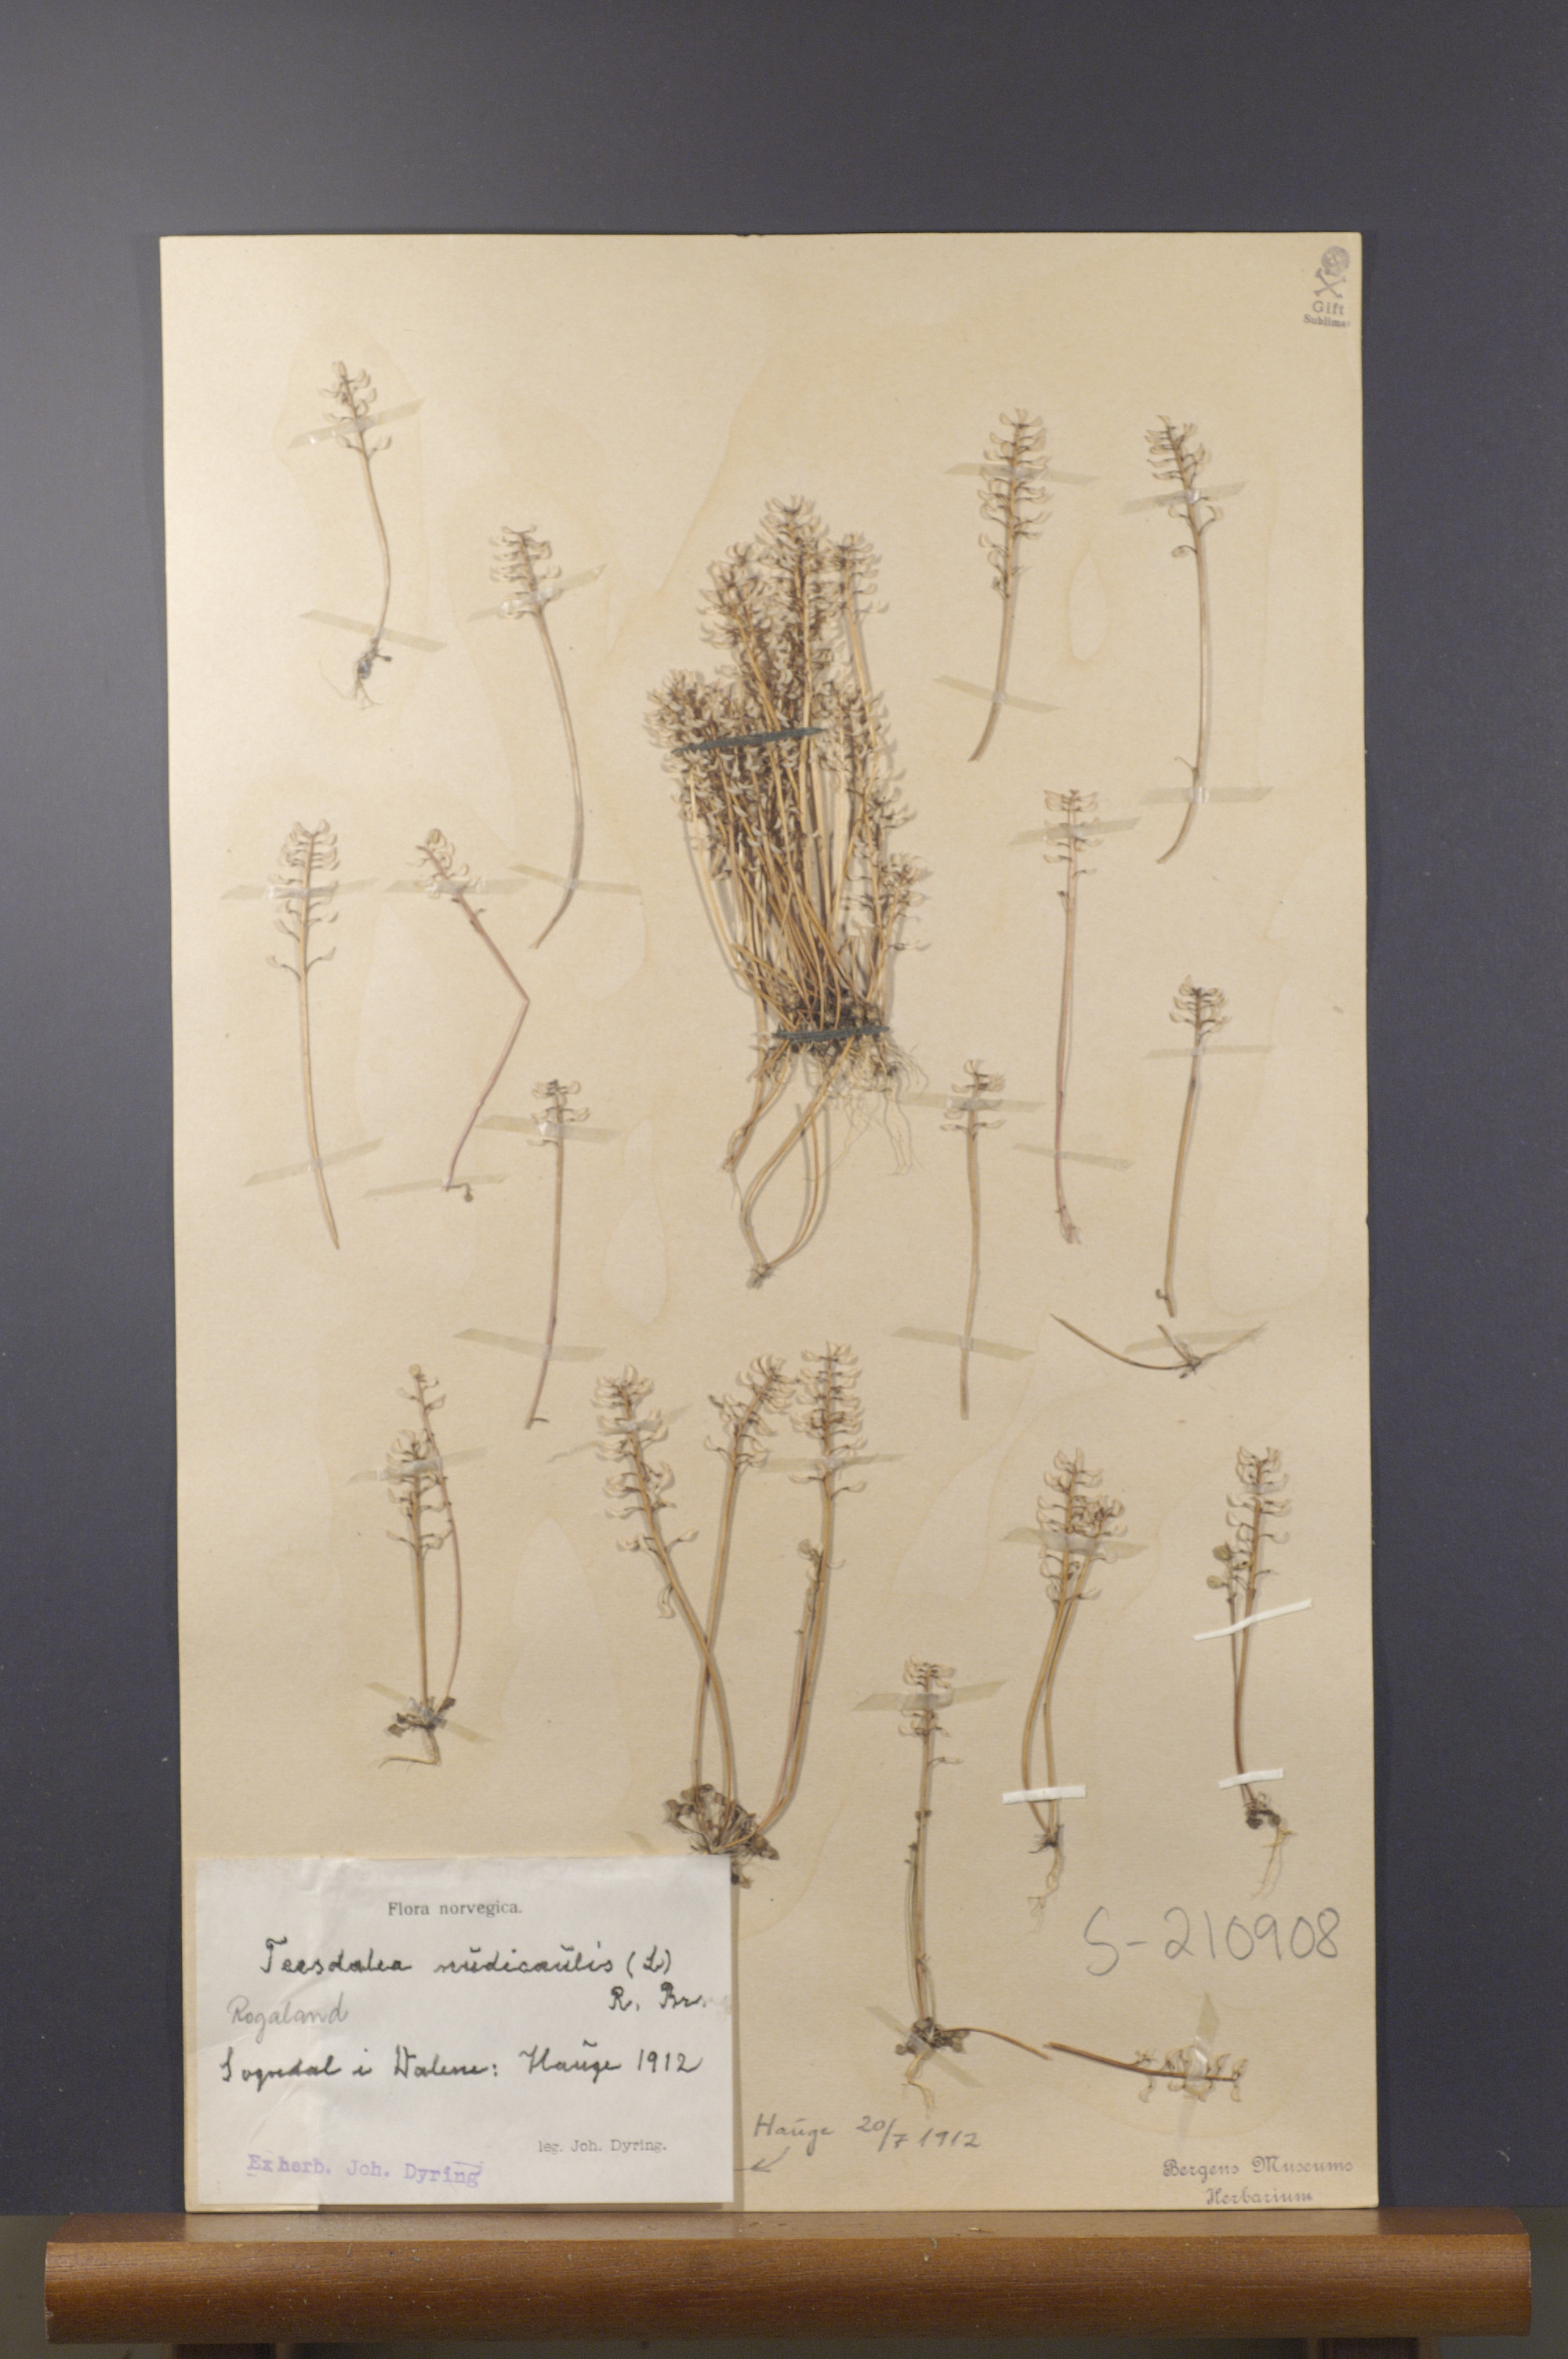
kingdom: Plantae
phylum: Tracheophyta
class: Magnoliopsida
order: Brassicales
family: Brassicaceae
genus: Teesdalia
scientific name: Teesdalia nudicaulis
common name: Shepherd's cress
